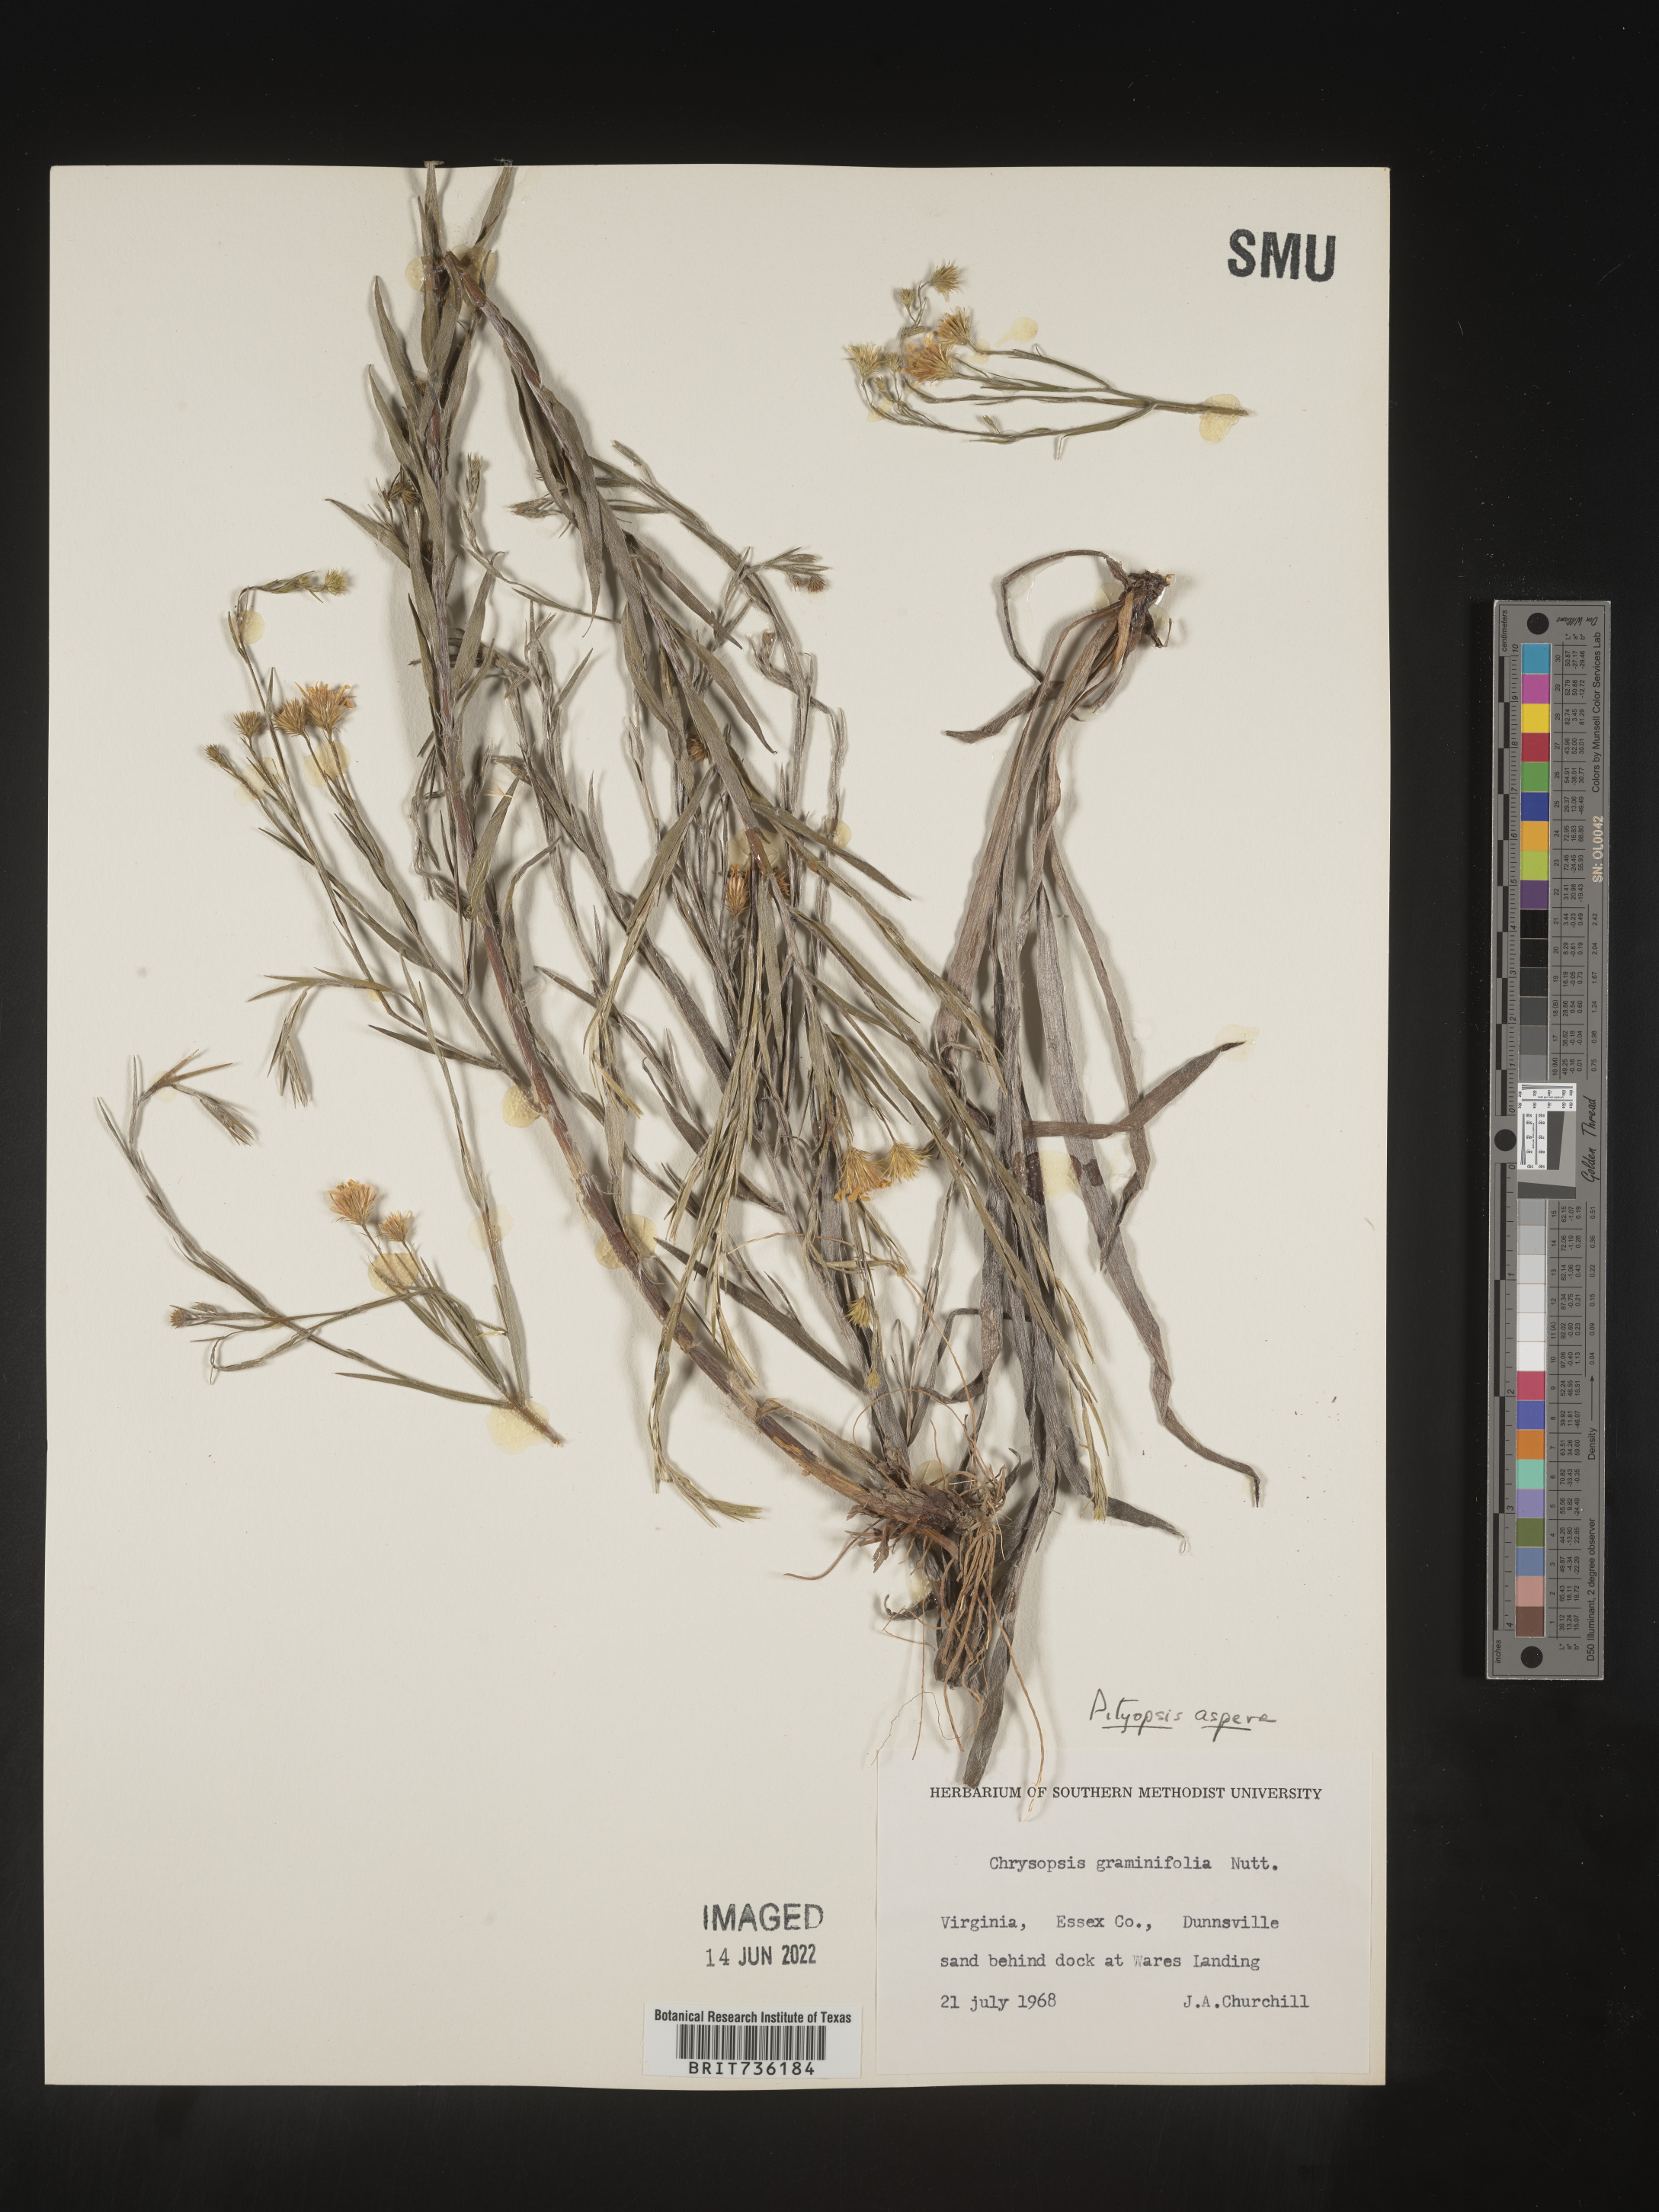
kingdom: Plantae
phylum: Tracheophyta
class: Magnoliopsida
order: Asterales
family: Asteraceae
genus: Pityopsis
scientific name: Pityopsis aspera
